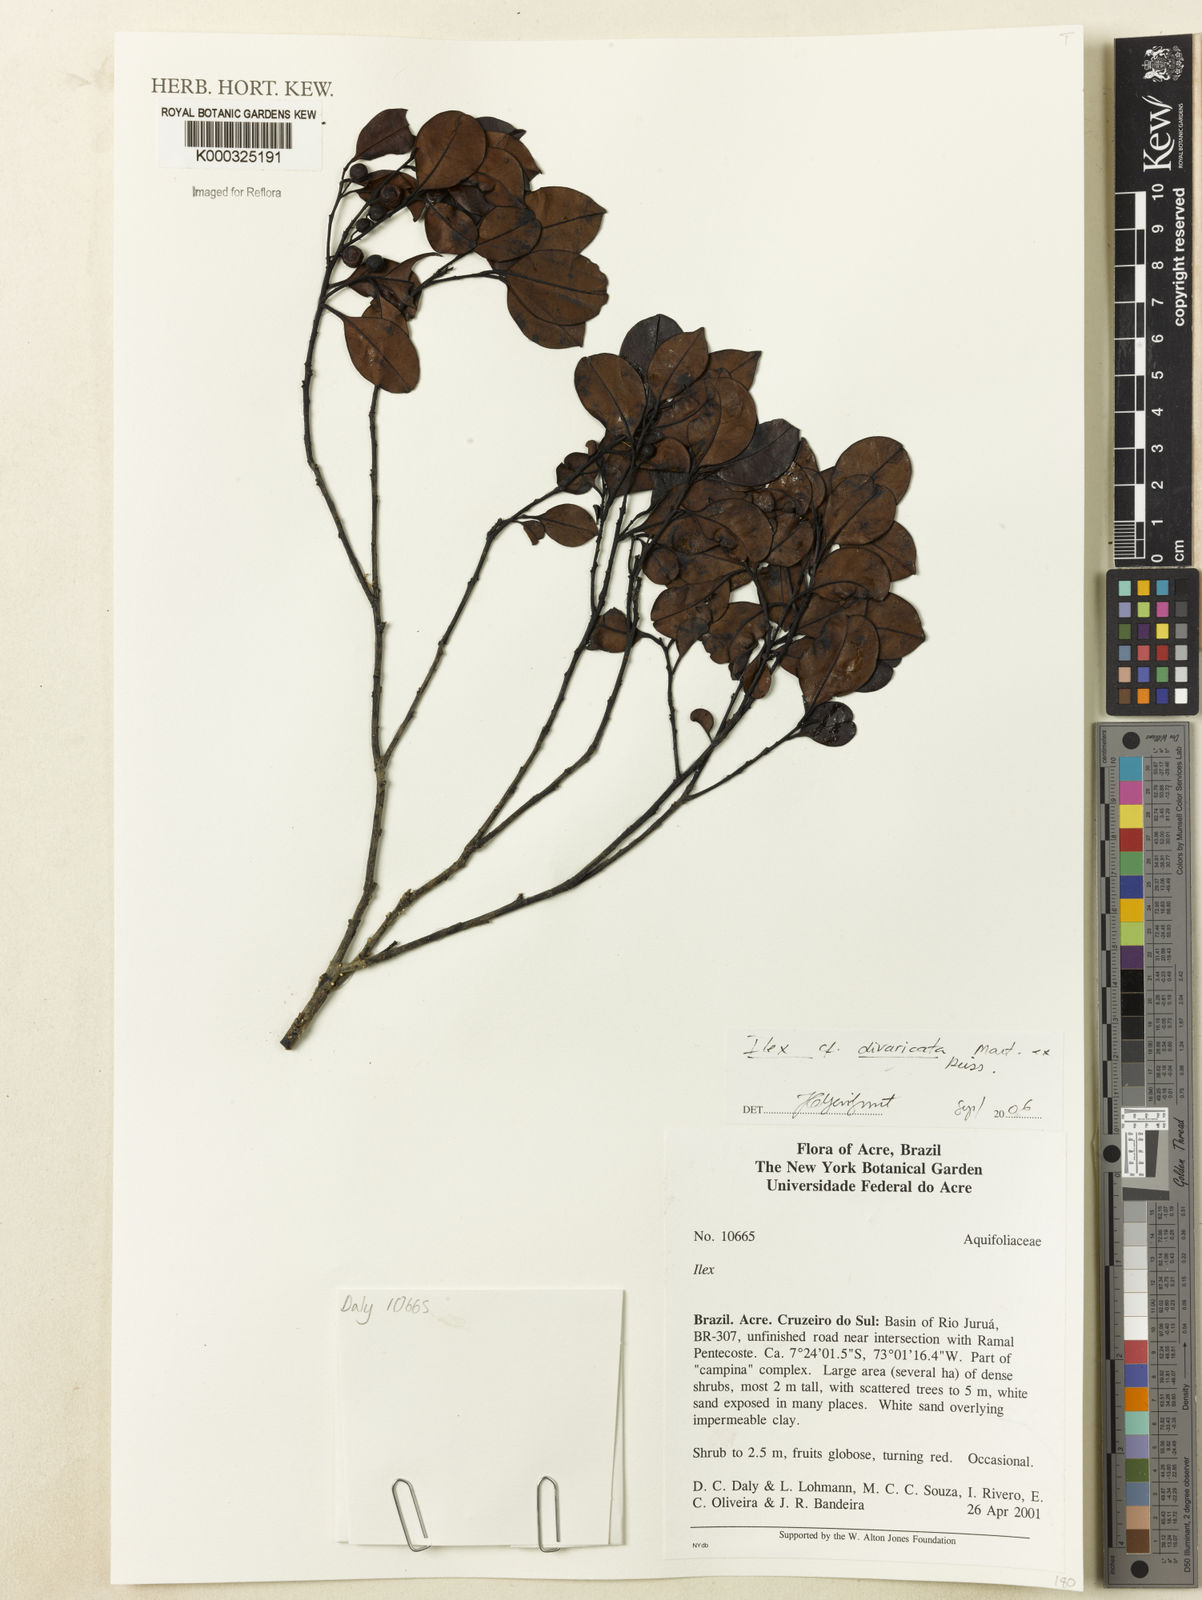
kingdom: Plantae
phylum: Tracheophyta
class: Magnoliopsida
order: Aquifoliales
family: Aquifoliaceae
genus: Ilex
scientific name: Ilex divaricata
